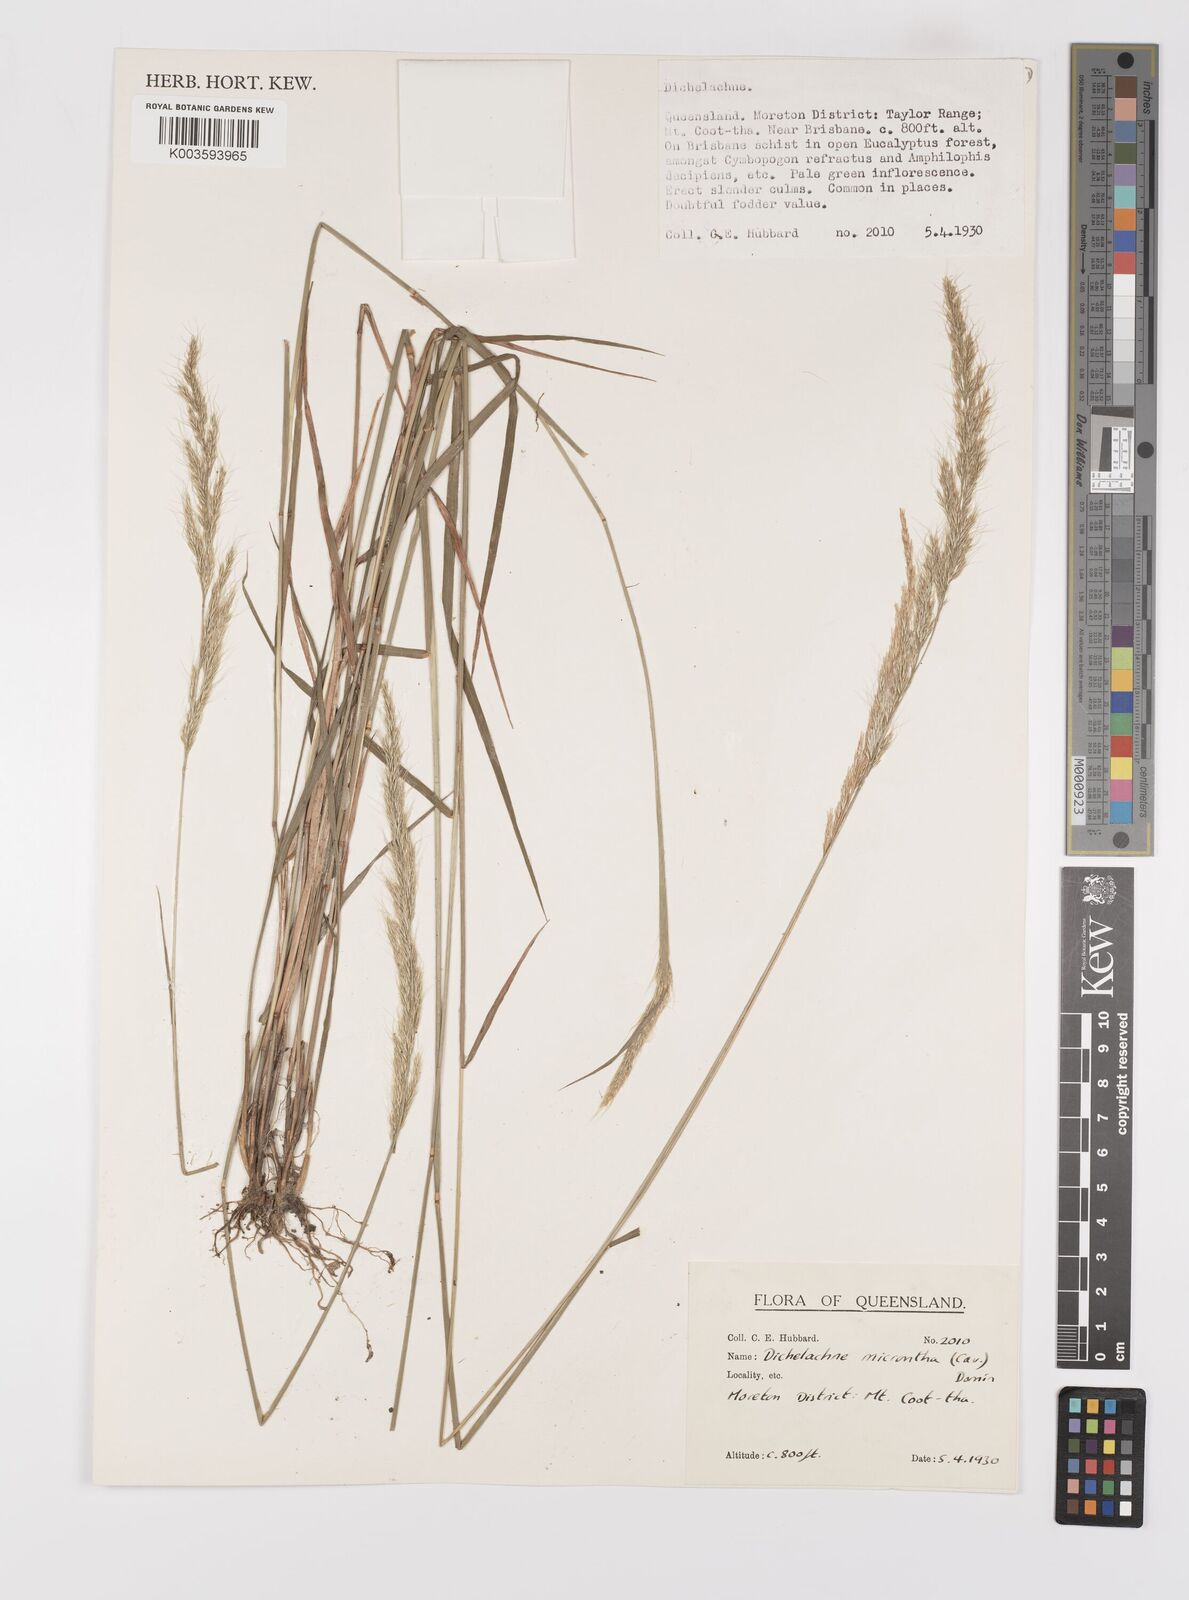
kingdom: Plantae
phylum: Tracheophyta
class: Liliopsida
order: Poales
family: Poaceae
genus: Dichelachne
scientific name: Dichelachne micrantha
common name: Plumegrass
